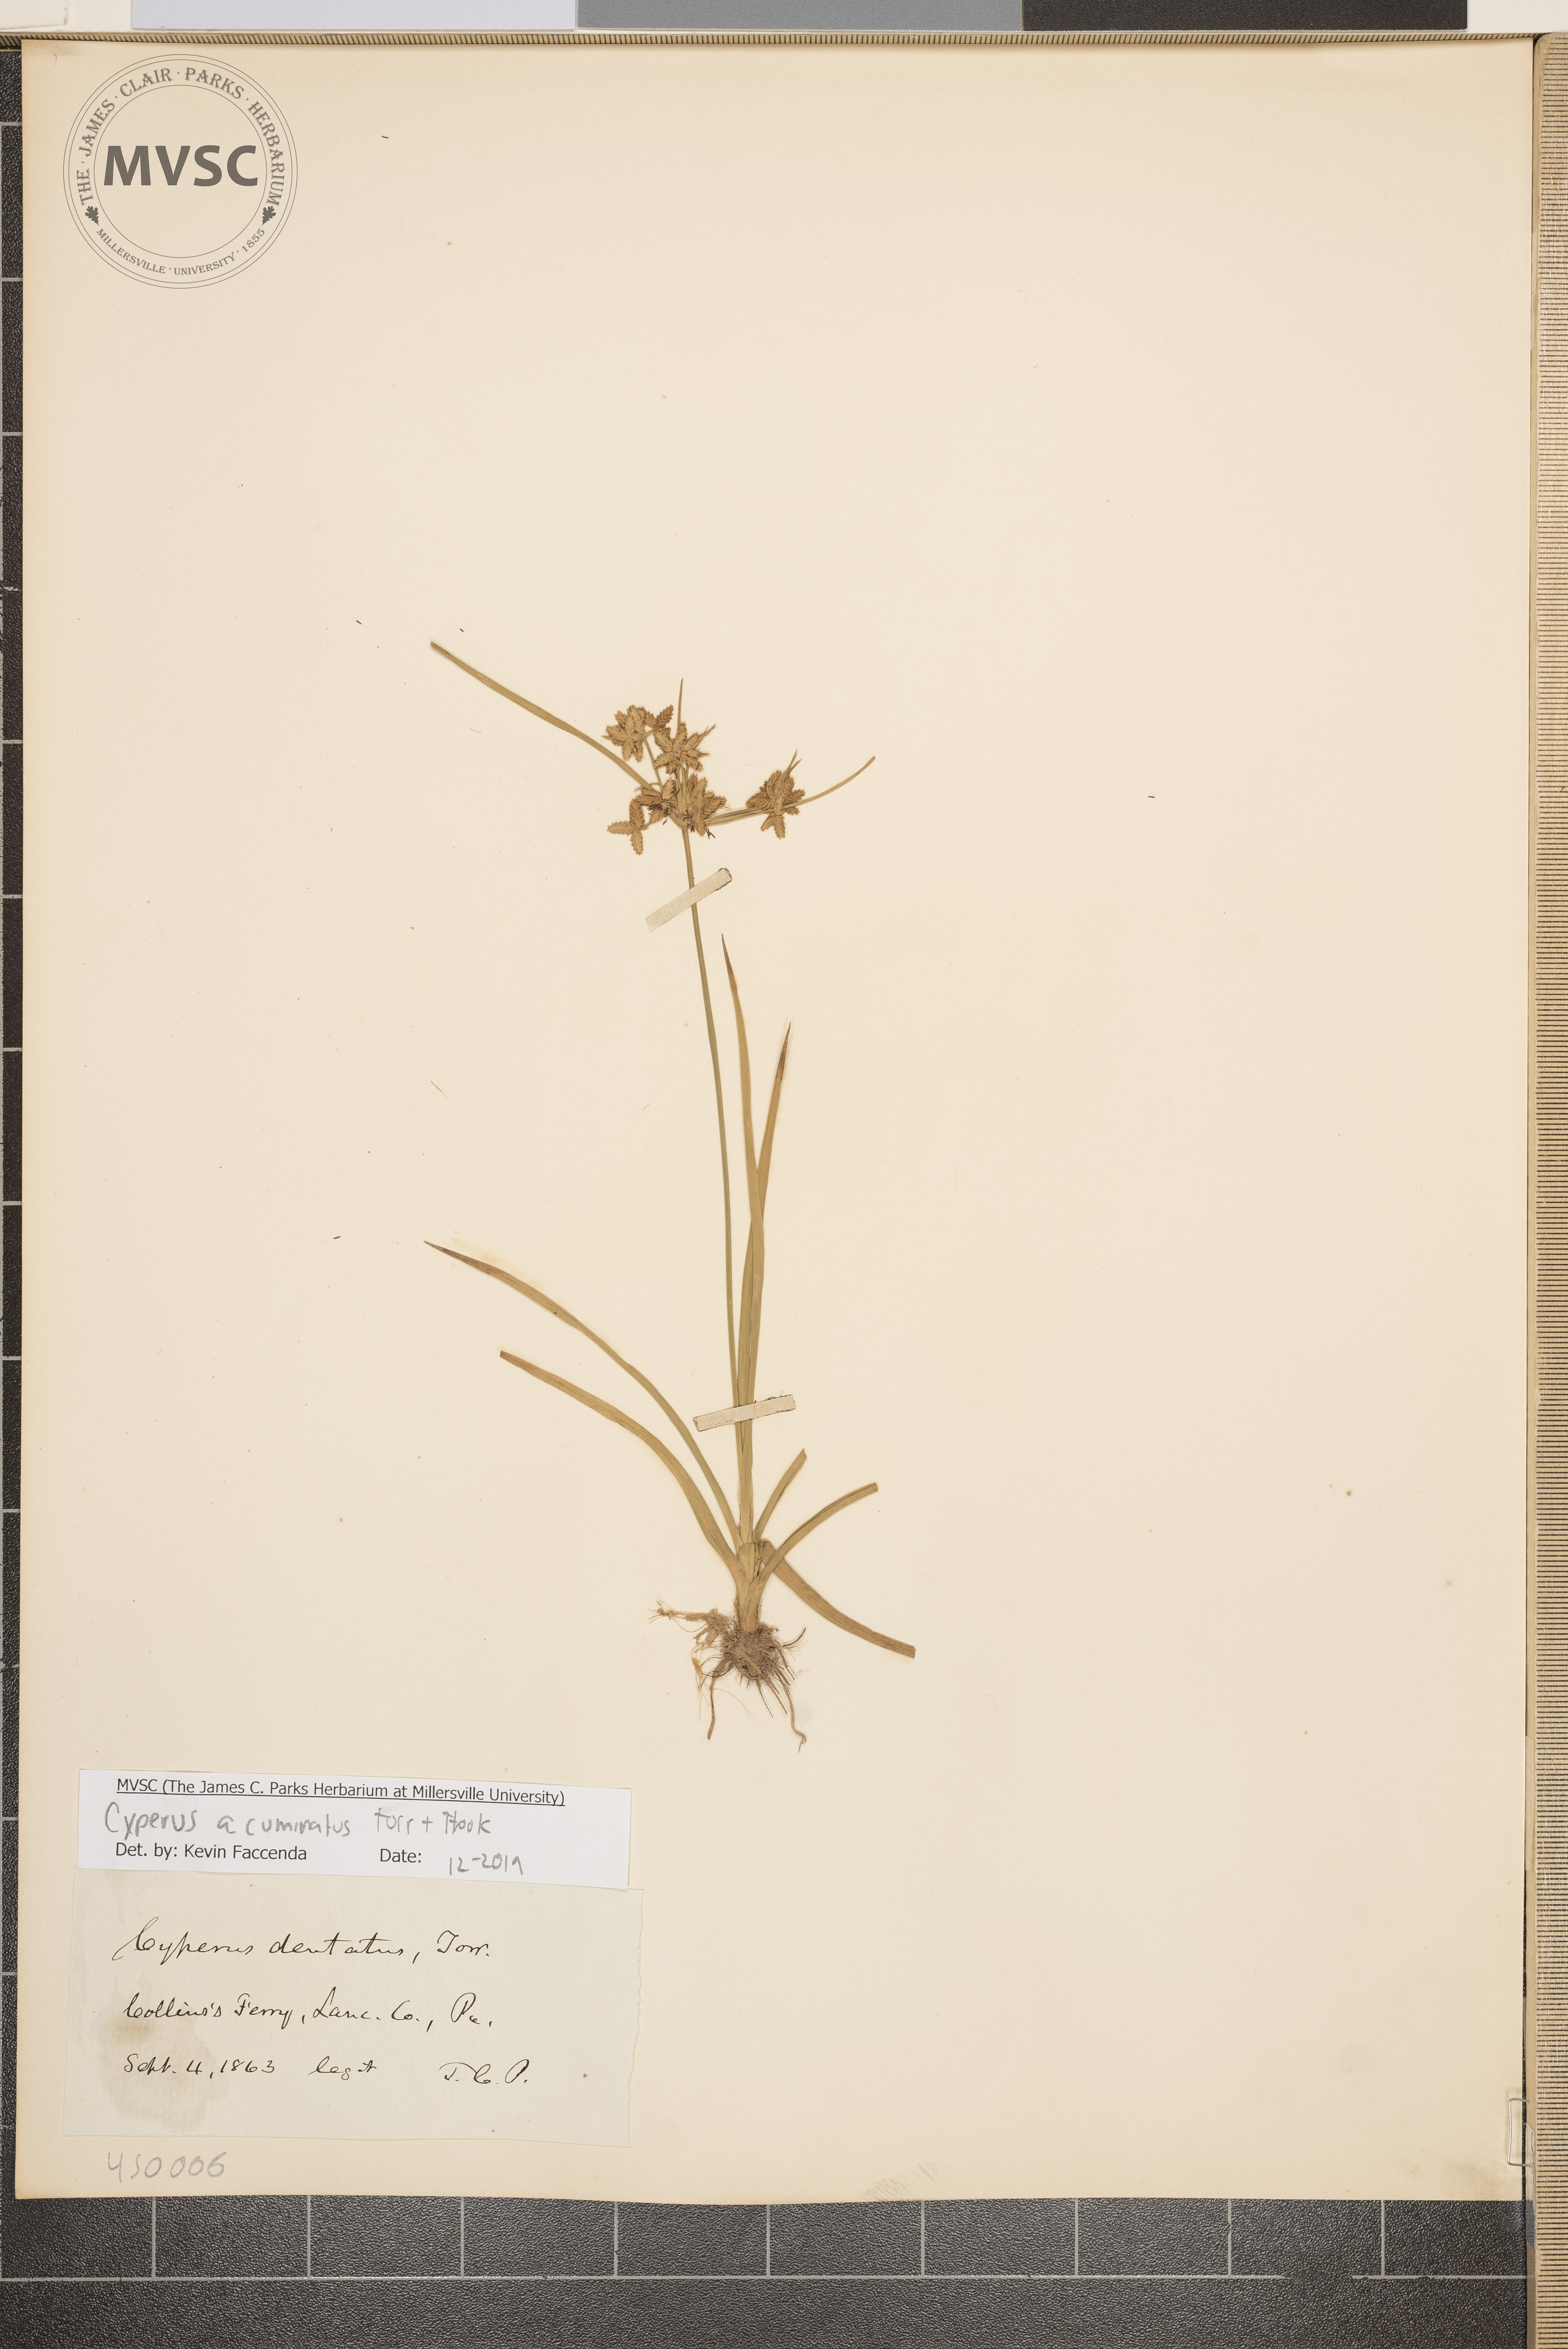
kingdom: Plantae
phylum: Tracheophyta
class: Liliopsida
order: Poales
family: Cyperaceae
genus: Cyperus
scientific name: Cyperus acuminatus
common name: Short-pointed cyperus
